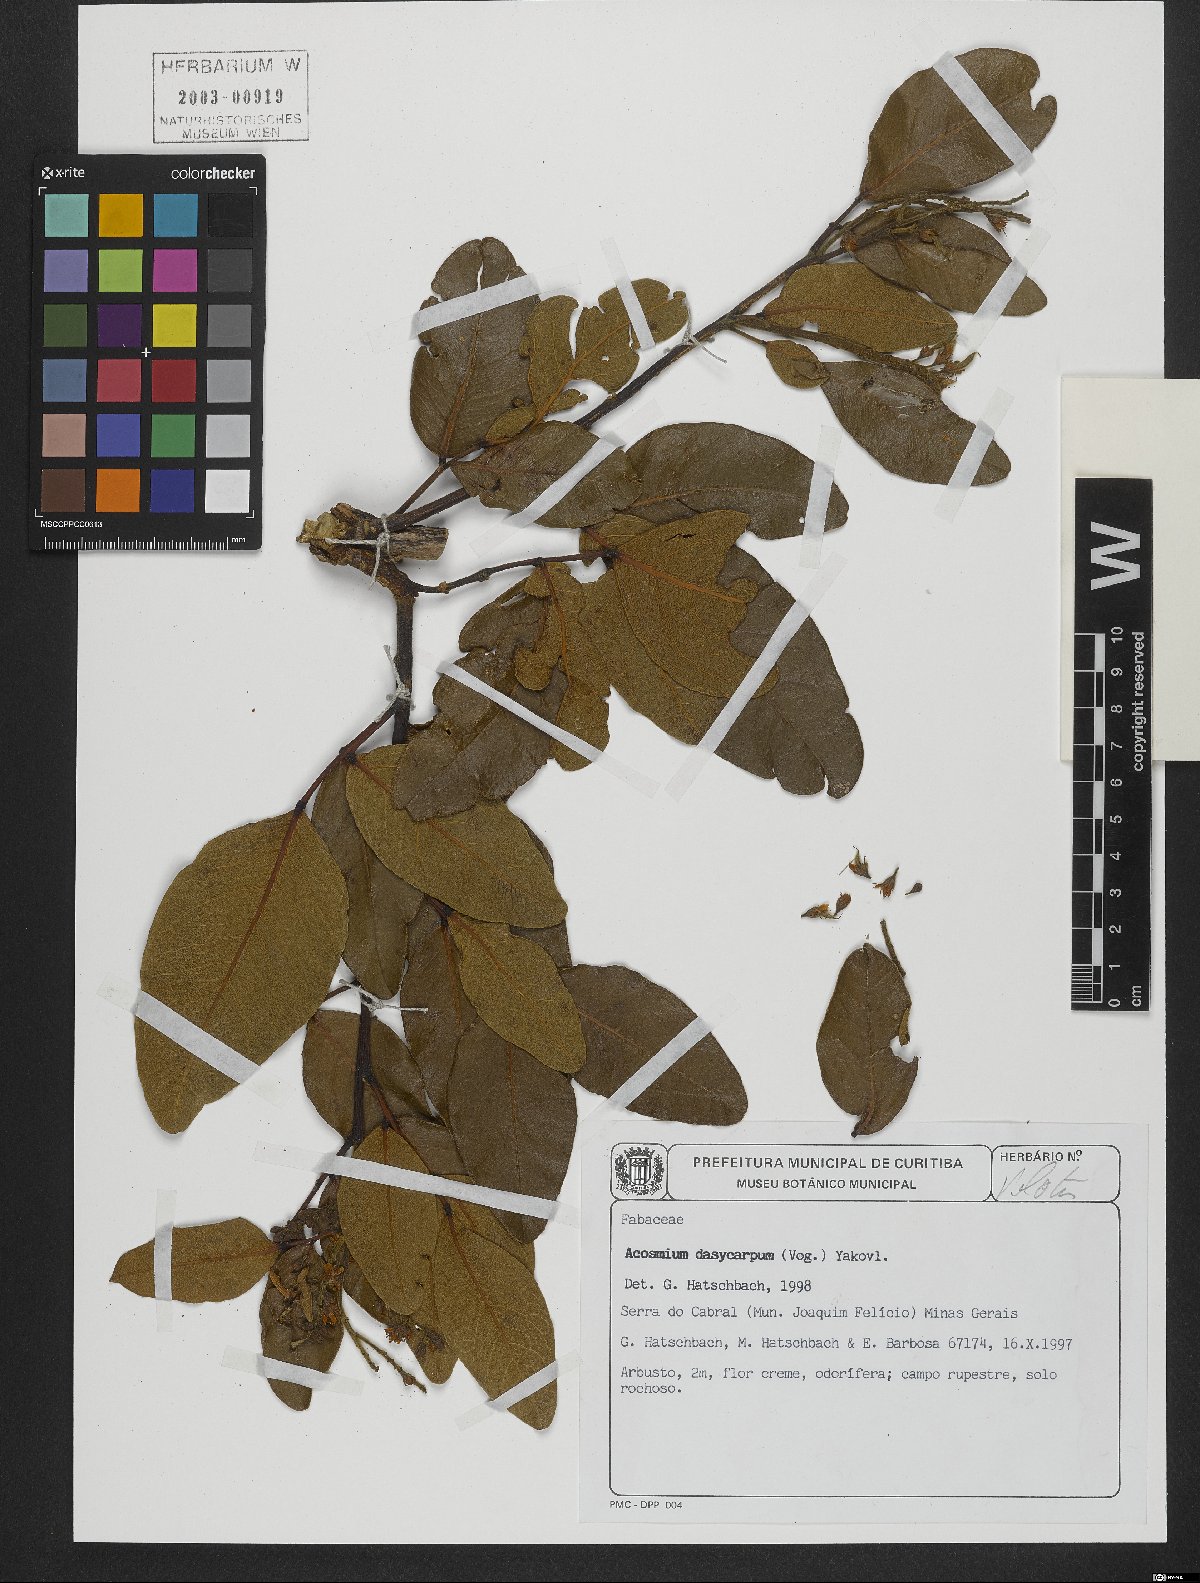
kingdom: Plantae
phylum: Tracheophyta
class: Magnoliopsida
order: Fabales
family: Fabaceae
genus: Leptolobium
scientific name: Leptolobium dasycarpum
